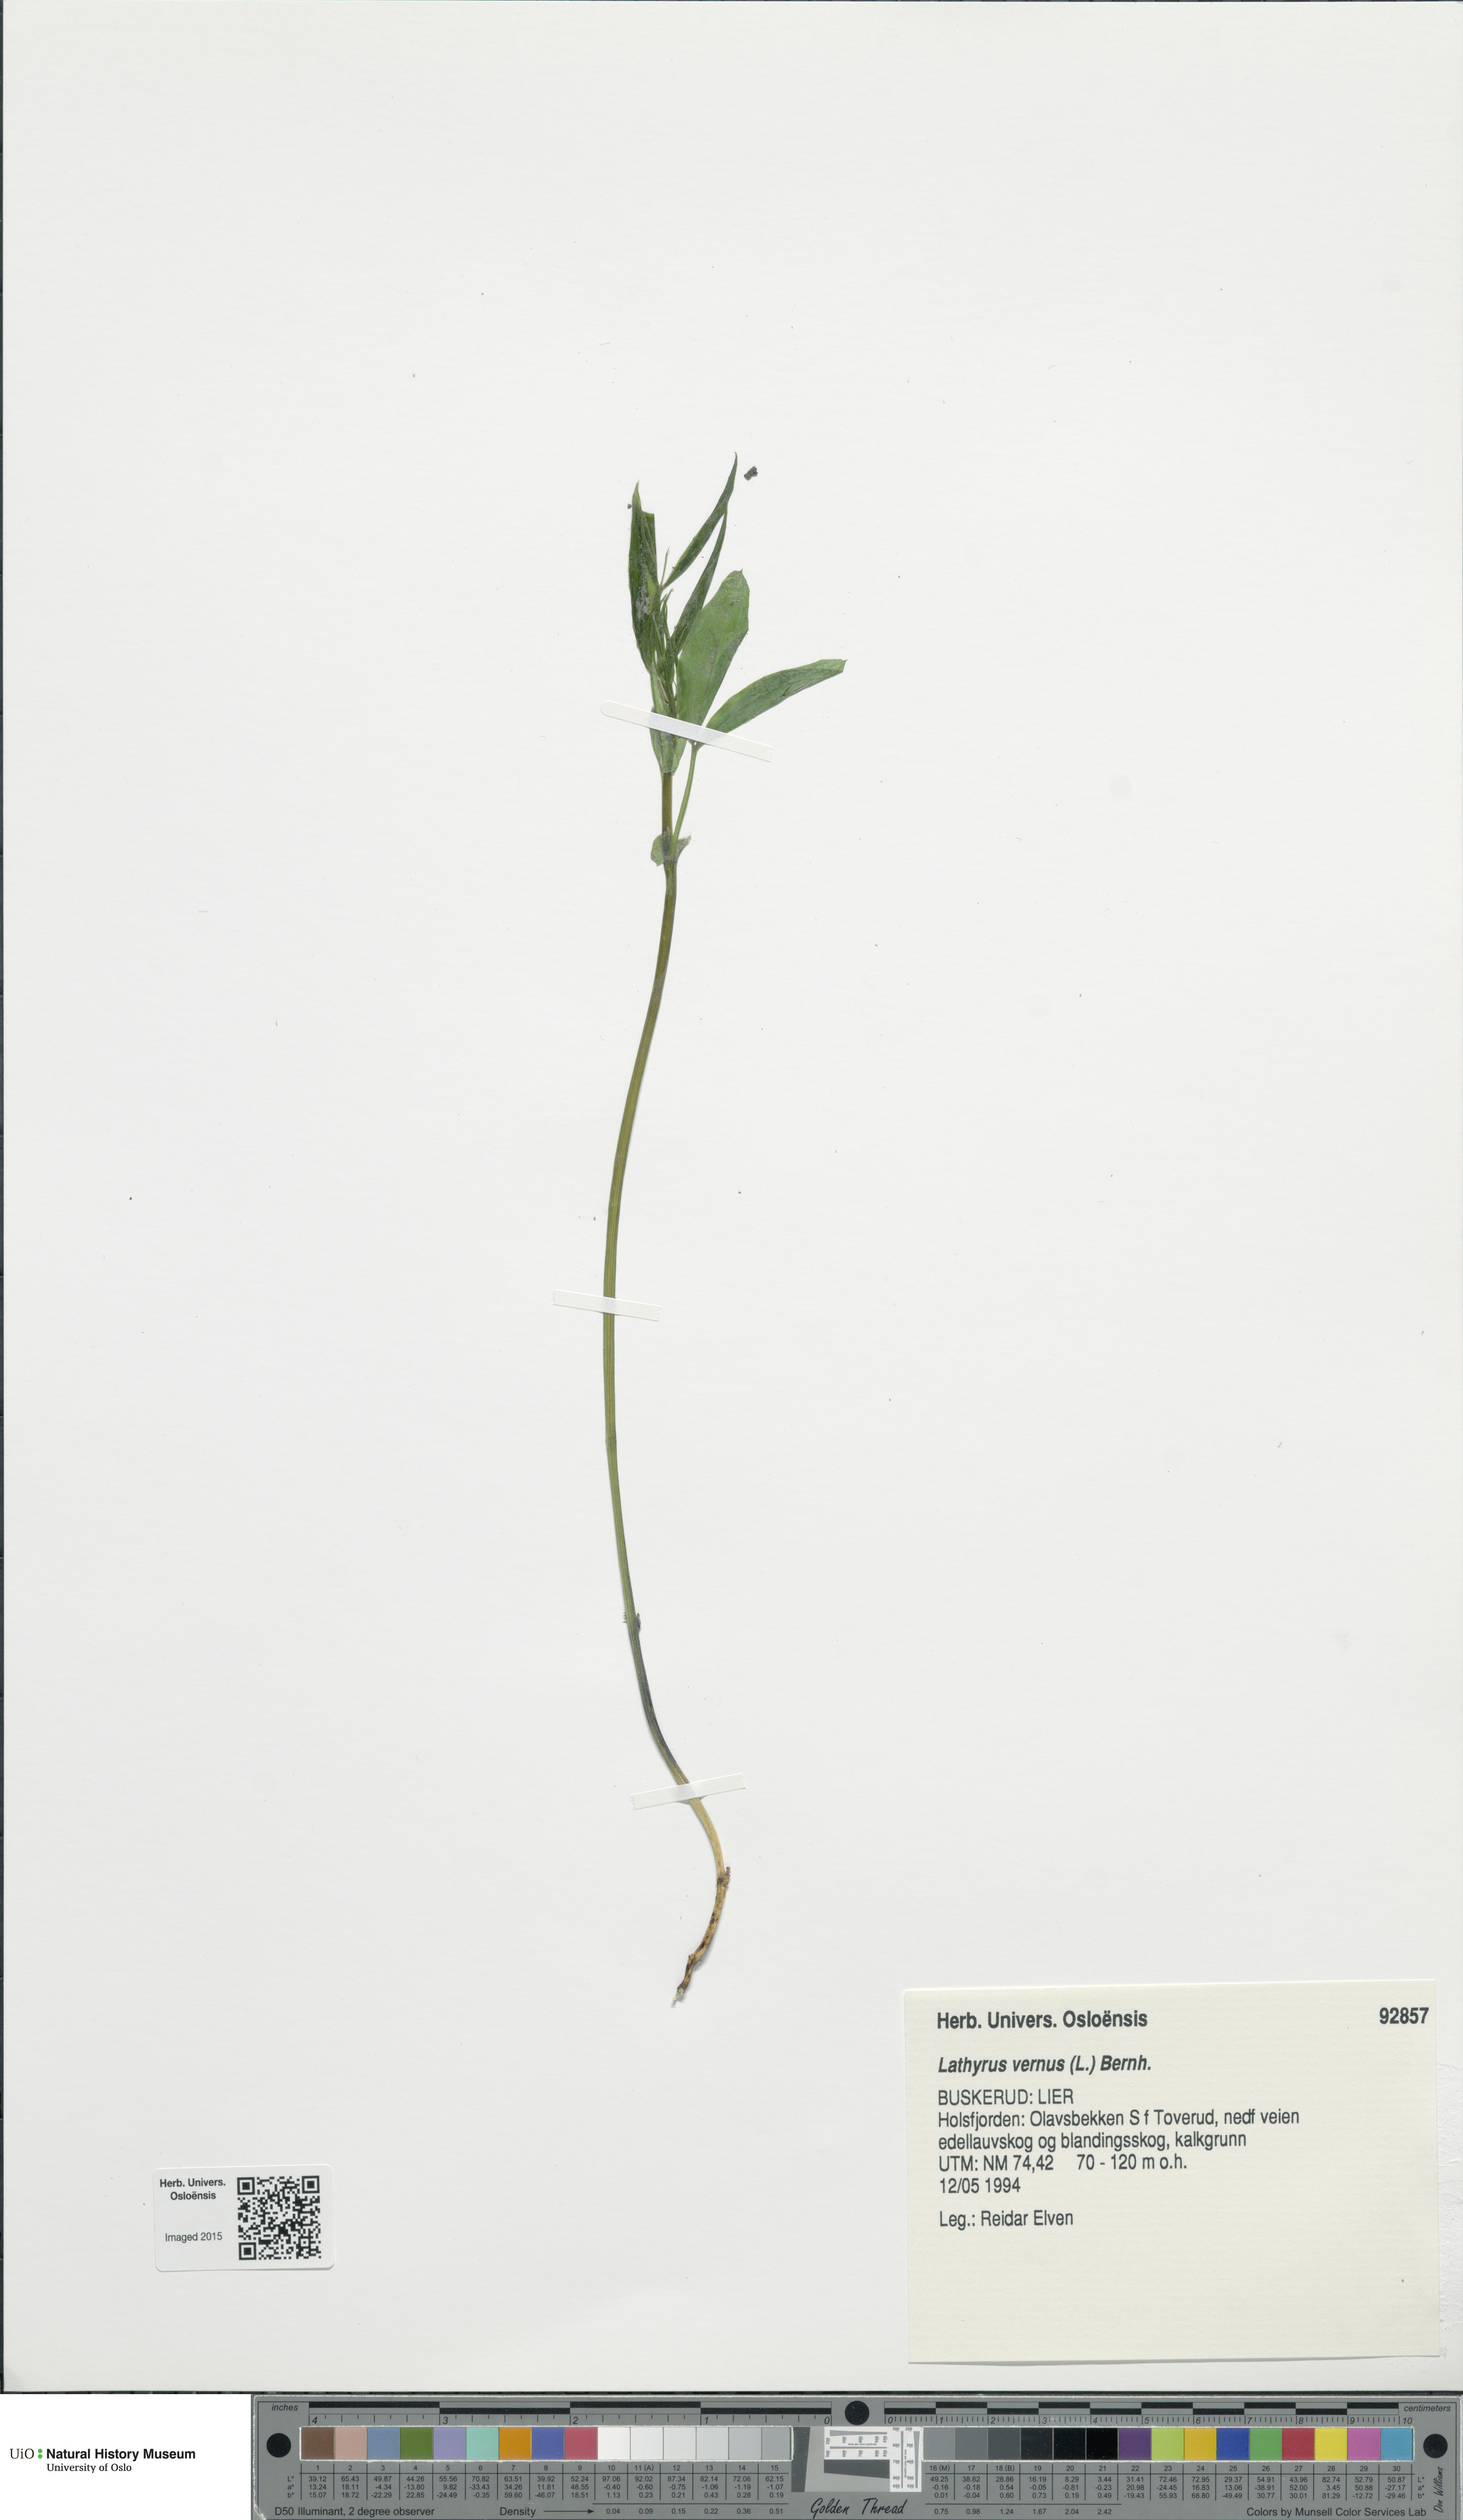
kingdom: Plantae
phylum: Tracheophyta
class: Magnoliopsida
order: Fabales
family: Fabaceae
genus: Lathyrus
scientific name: Lathyrus vernus
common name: Spring pea
